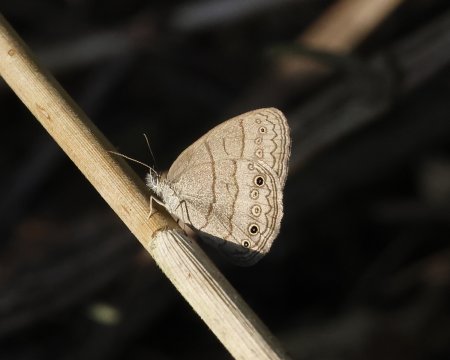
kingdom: Animalia
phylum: Arthropoda
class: Insecta
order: Lepidoptera
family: Nymphalidae
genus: Hermeuptychia
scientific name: Hermeuptychia intricata
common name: Intricate Satyr
